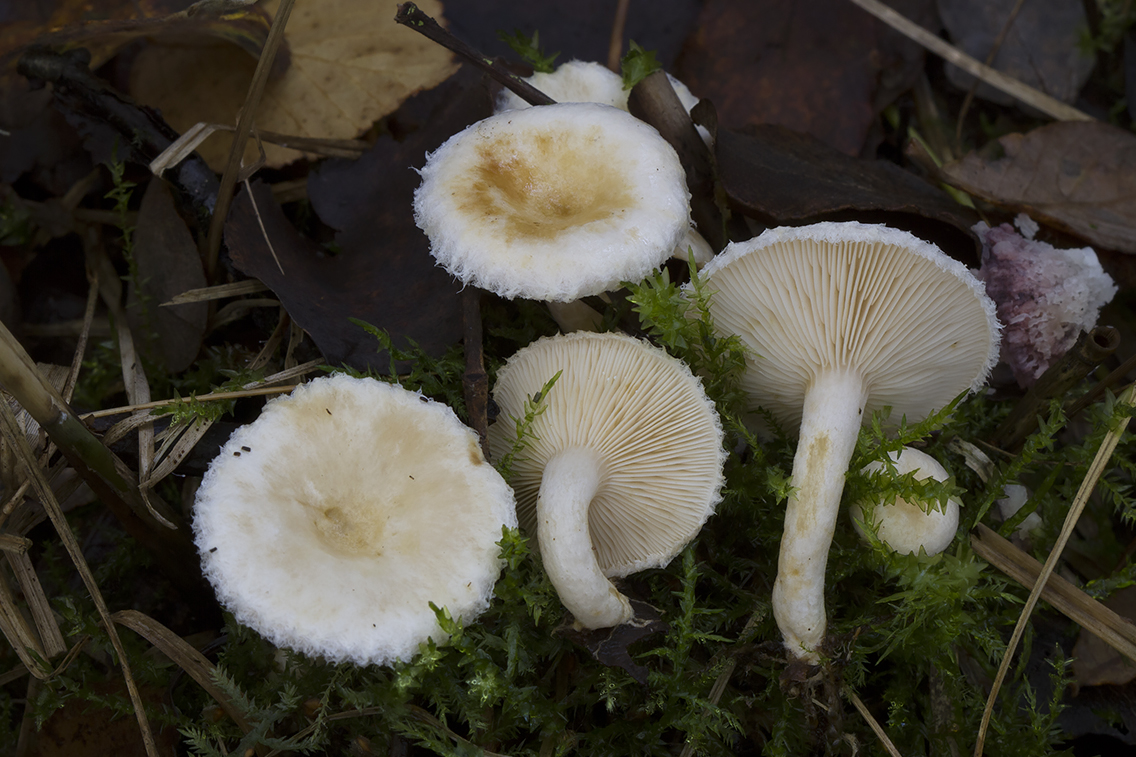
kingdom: Fungi
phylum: Basidiomycota
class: Agaricomycetes
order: Russulales
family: Russulaceae
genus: Lactarius
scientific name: Lactarius scoticus
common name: tørve-mælkehat
